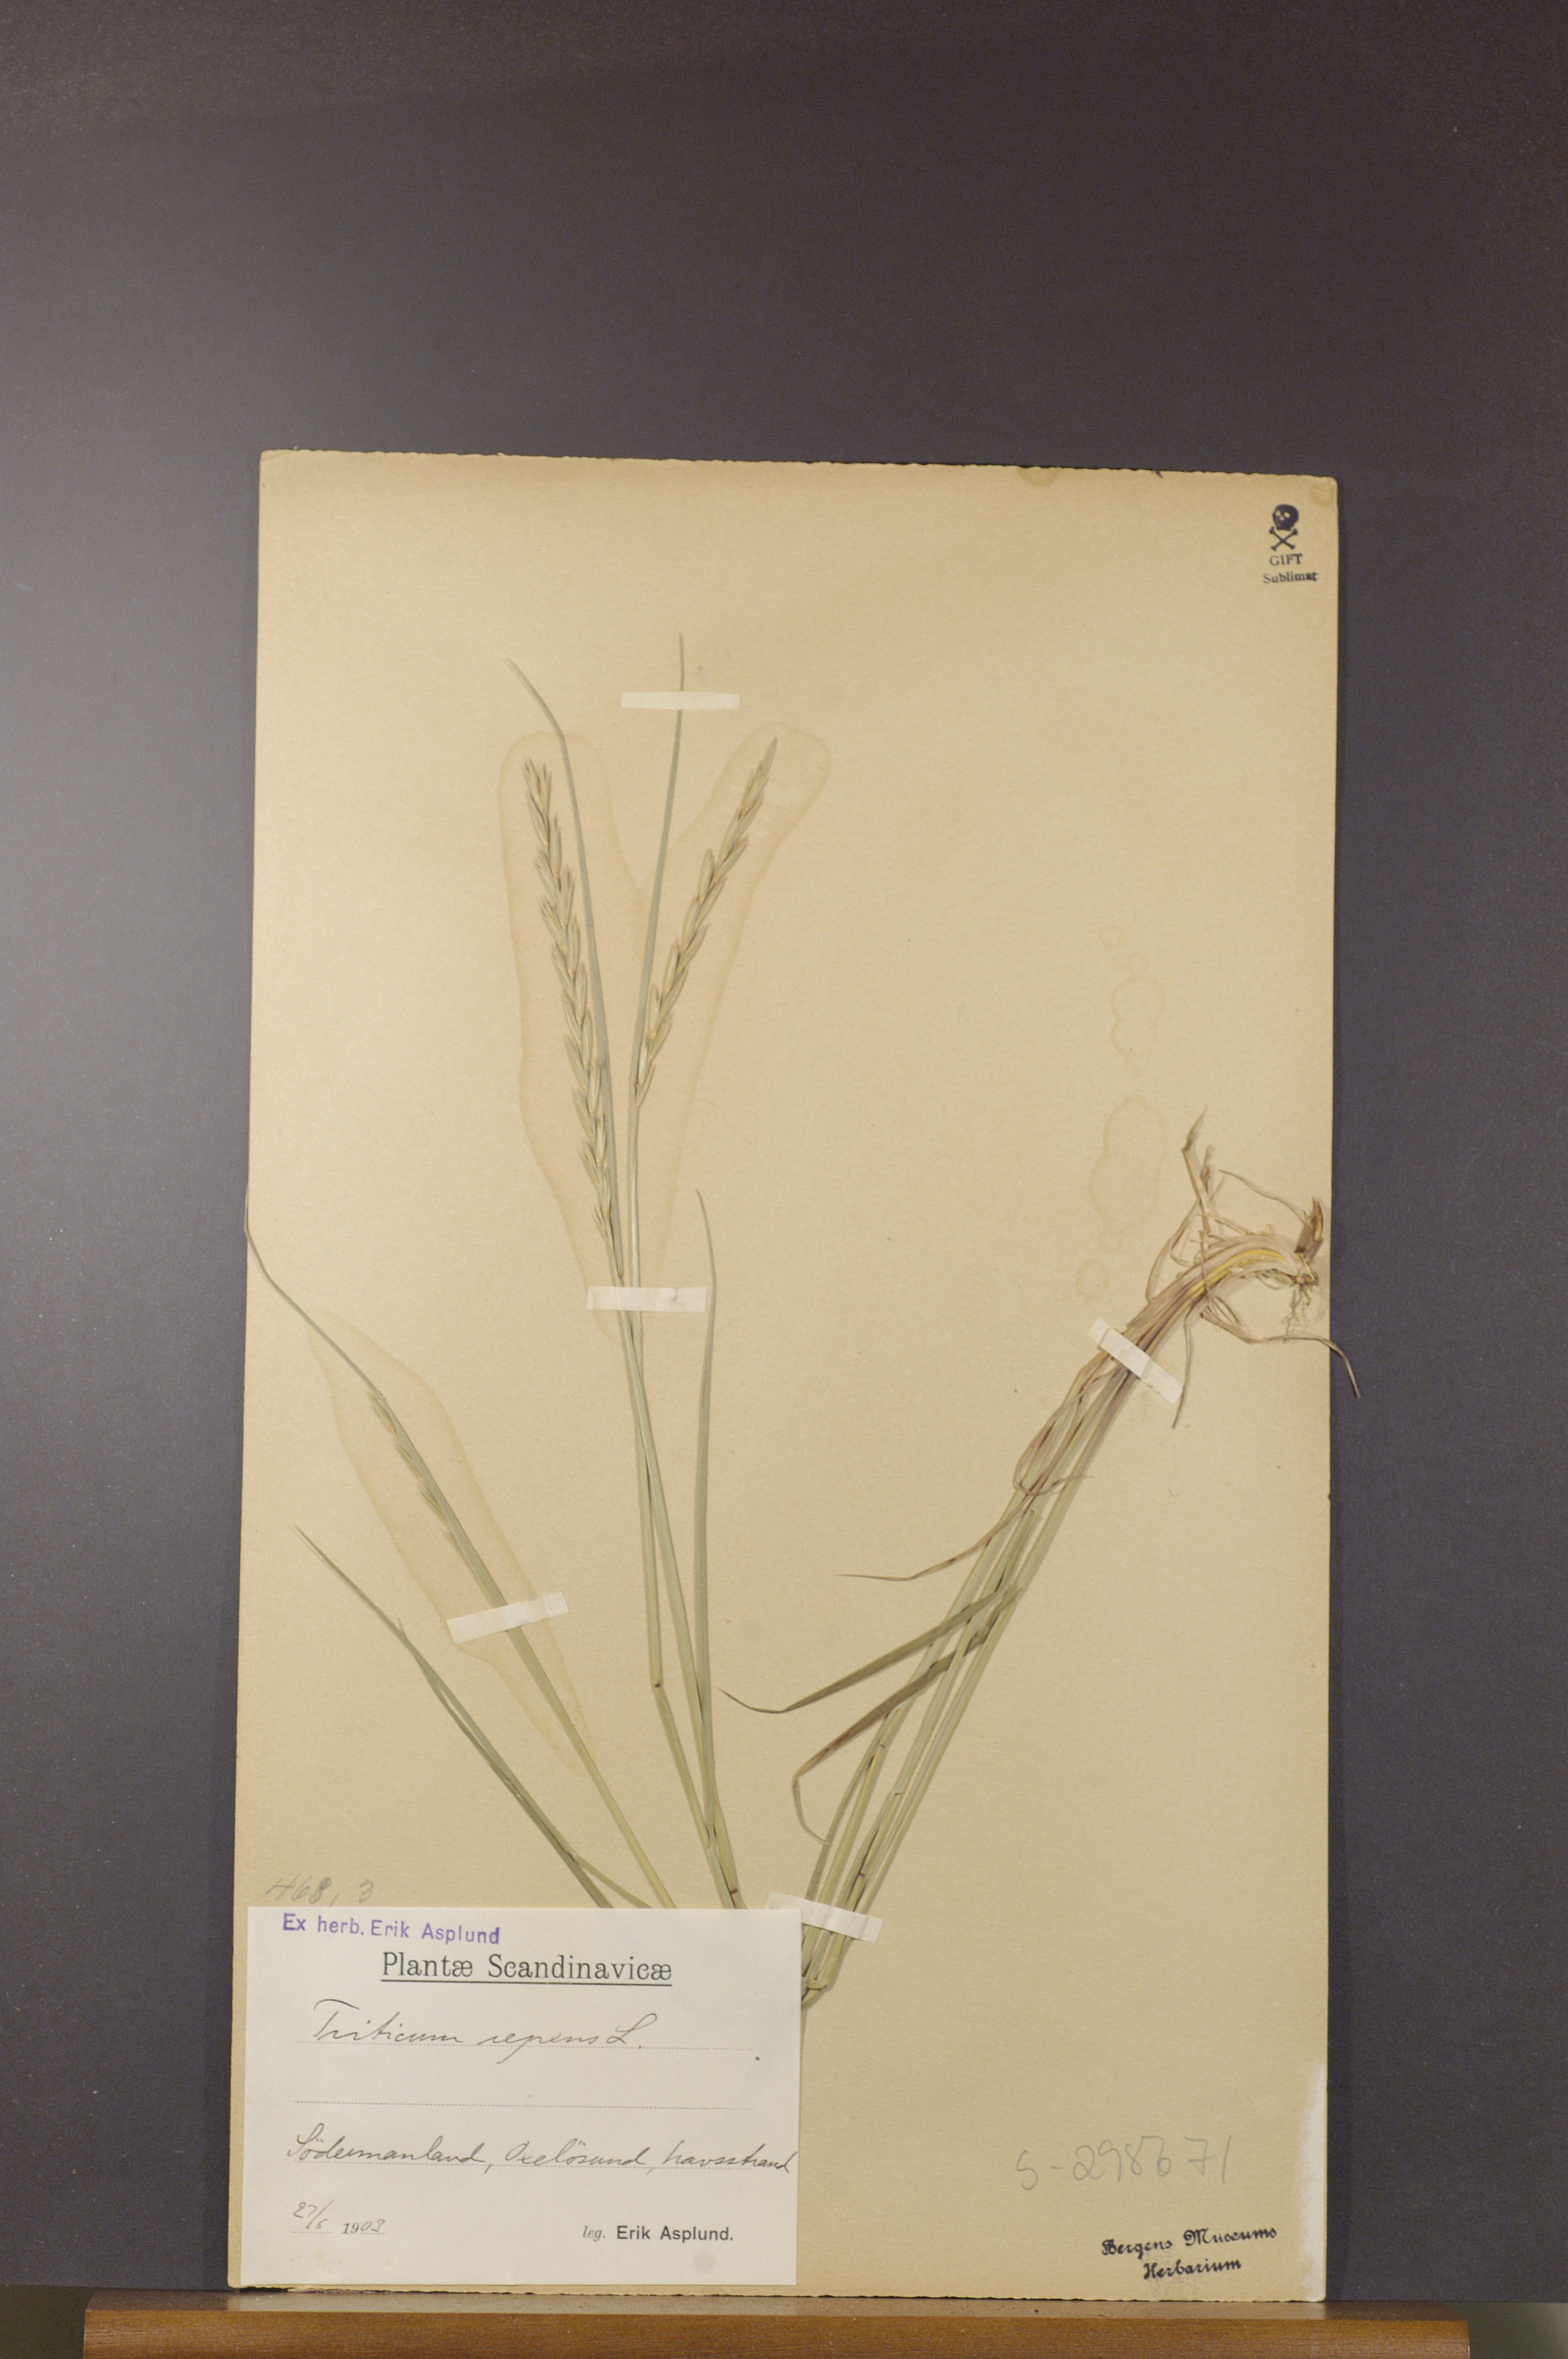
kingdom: Plantae
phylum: Tracheophyta
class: Liliopsida
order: Poales
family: Poaceae
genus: Elymus
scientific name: Elymus repens
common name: Quackgrass
